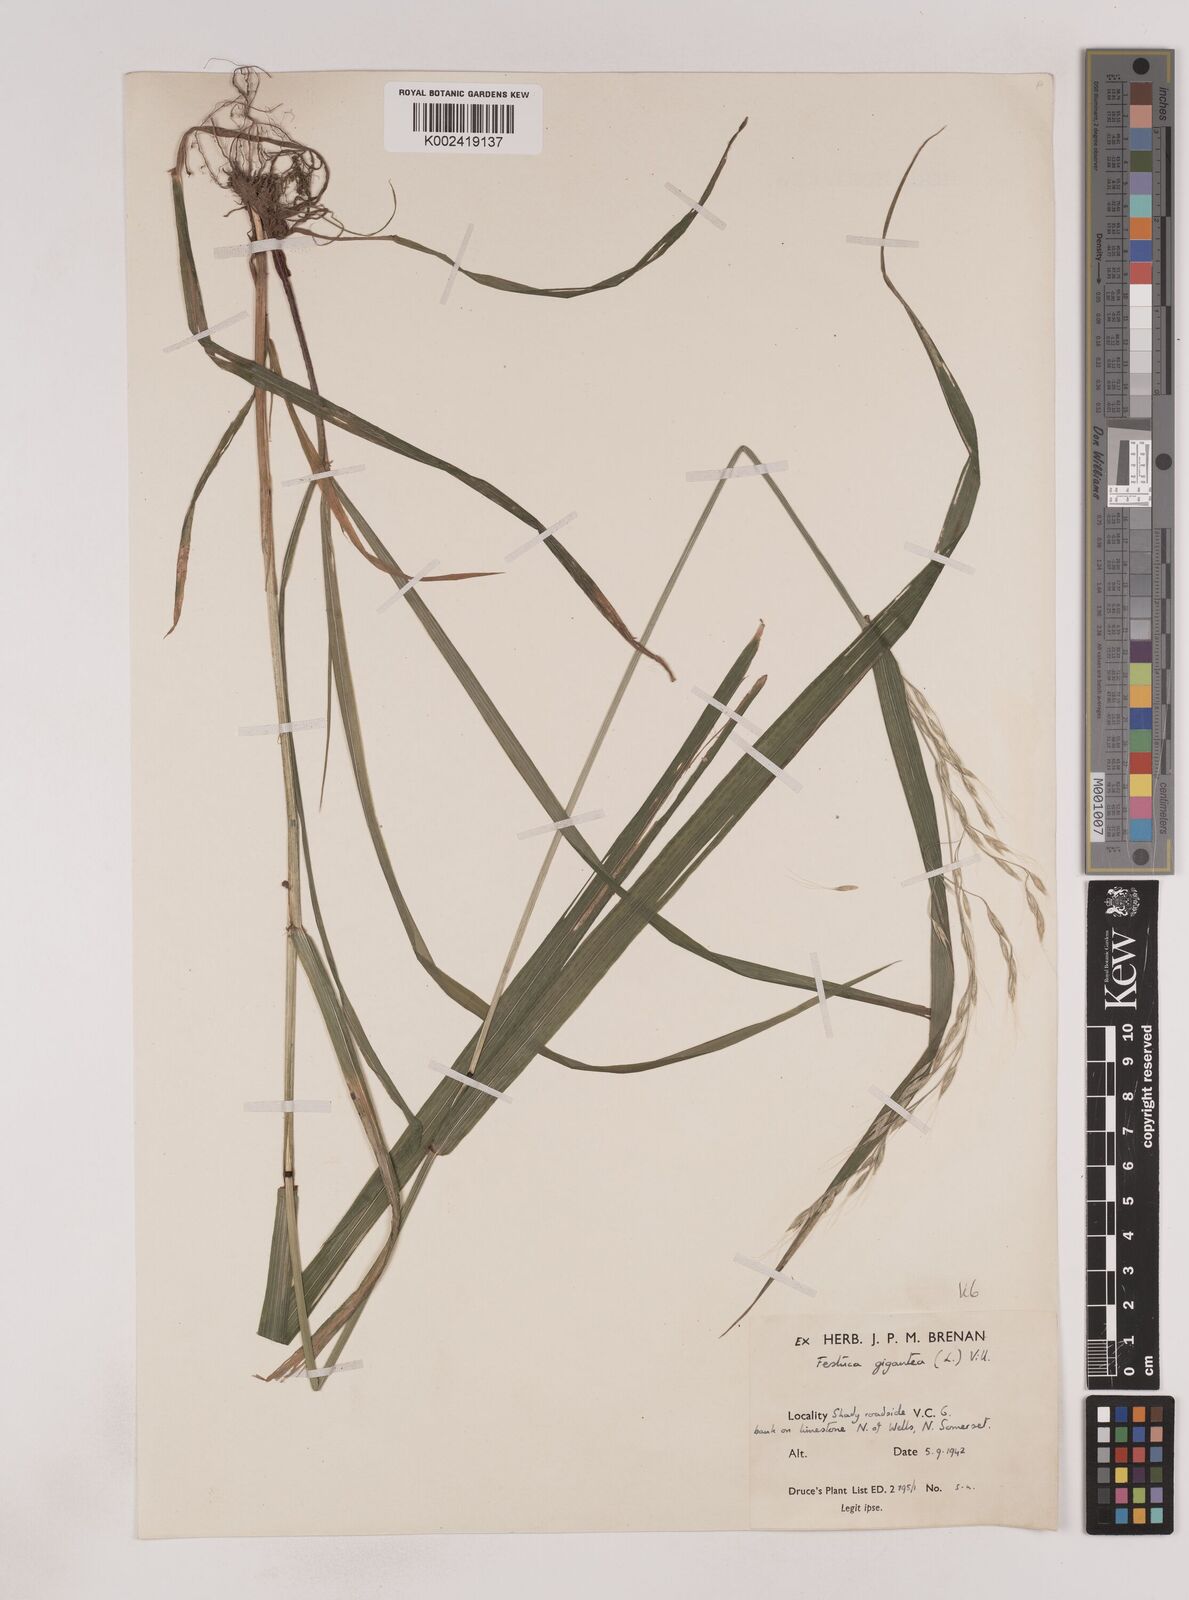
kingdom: Plantae
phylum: Tracheophyta
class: Liliopsida
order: Poales
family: Poaceae
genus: Lolium
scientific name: Lolium giganteum
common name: Giant fescue
